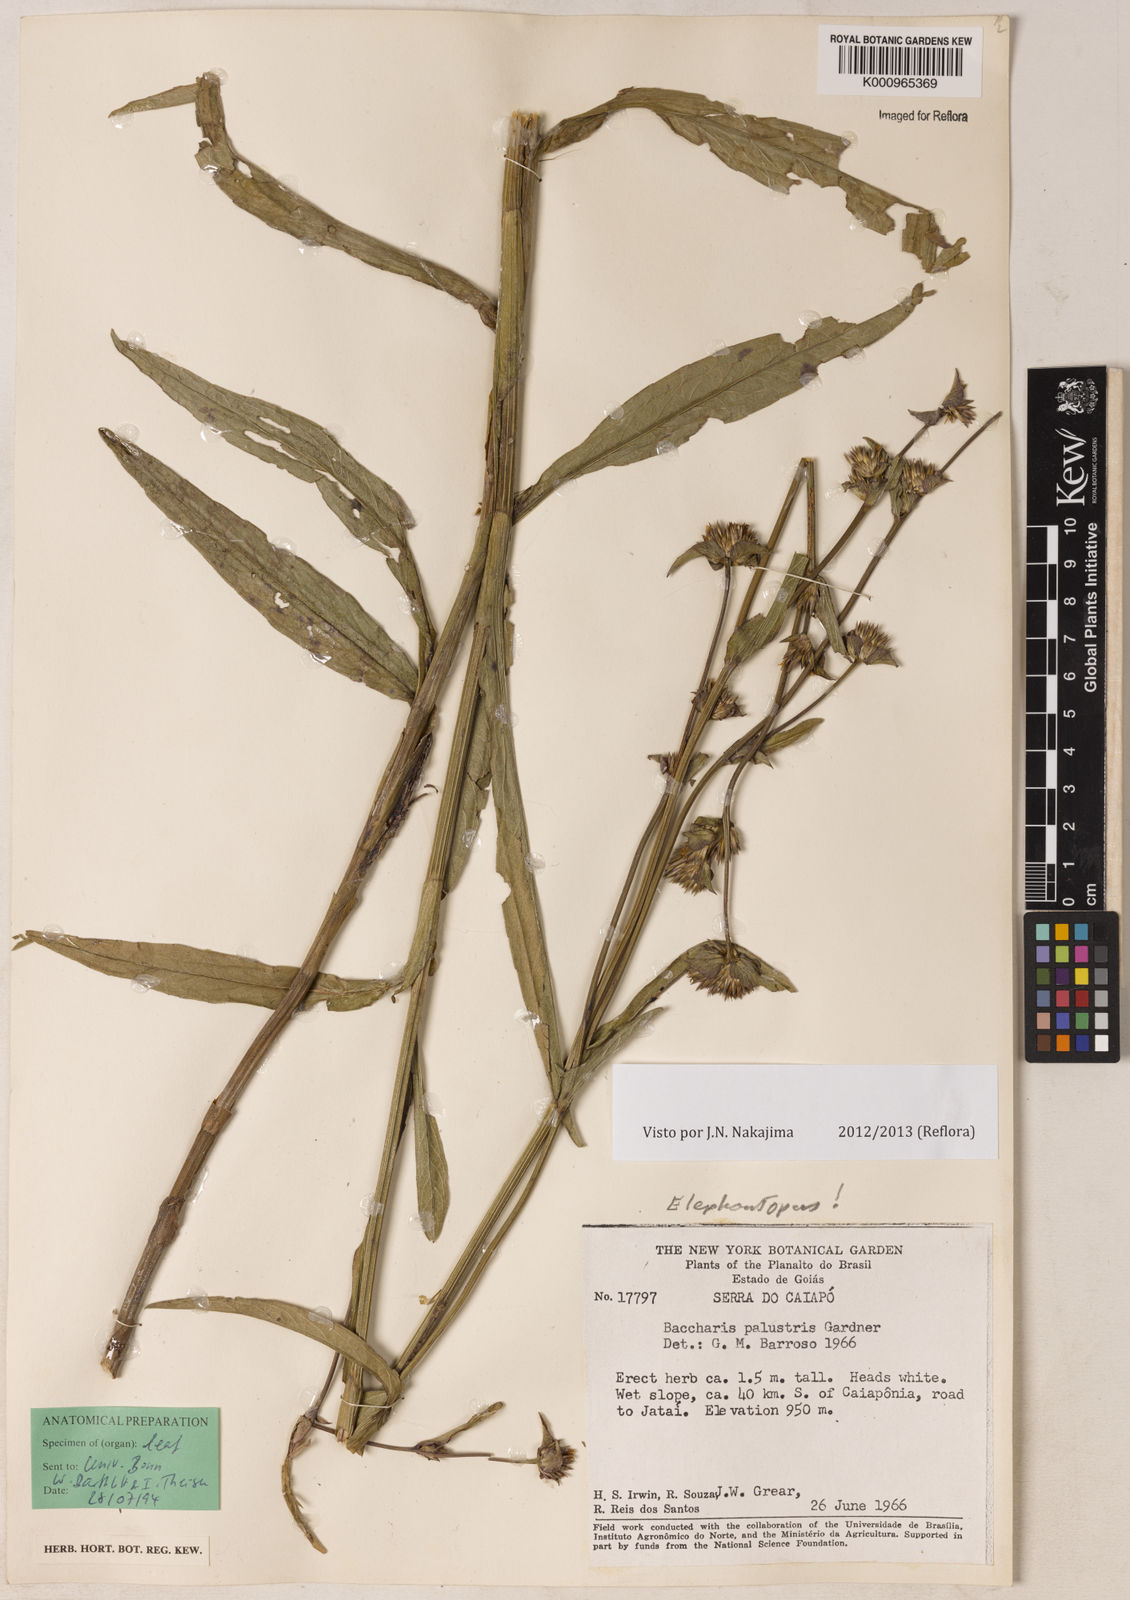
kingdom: Plantae
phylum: Tracheophyta
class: Magnoliopsida
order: Asterales
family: Asteraceae
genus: Elephantopus
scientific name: Elephantopus palustris
